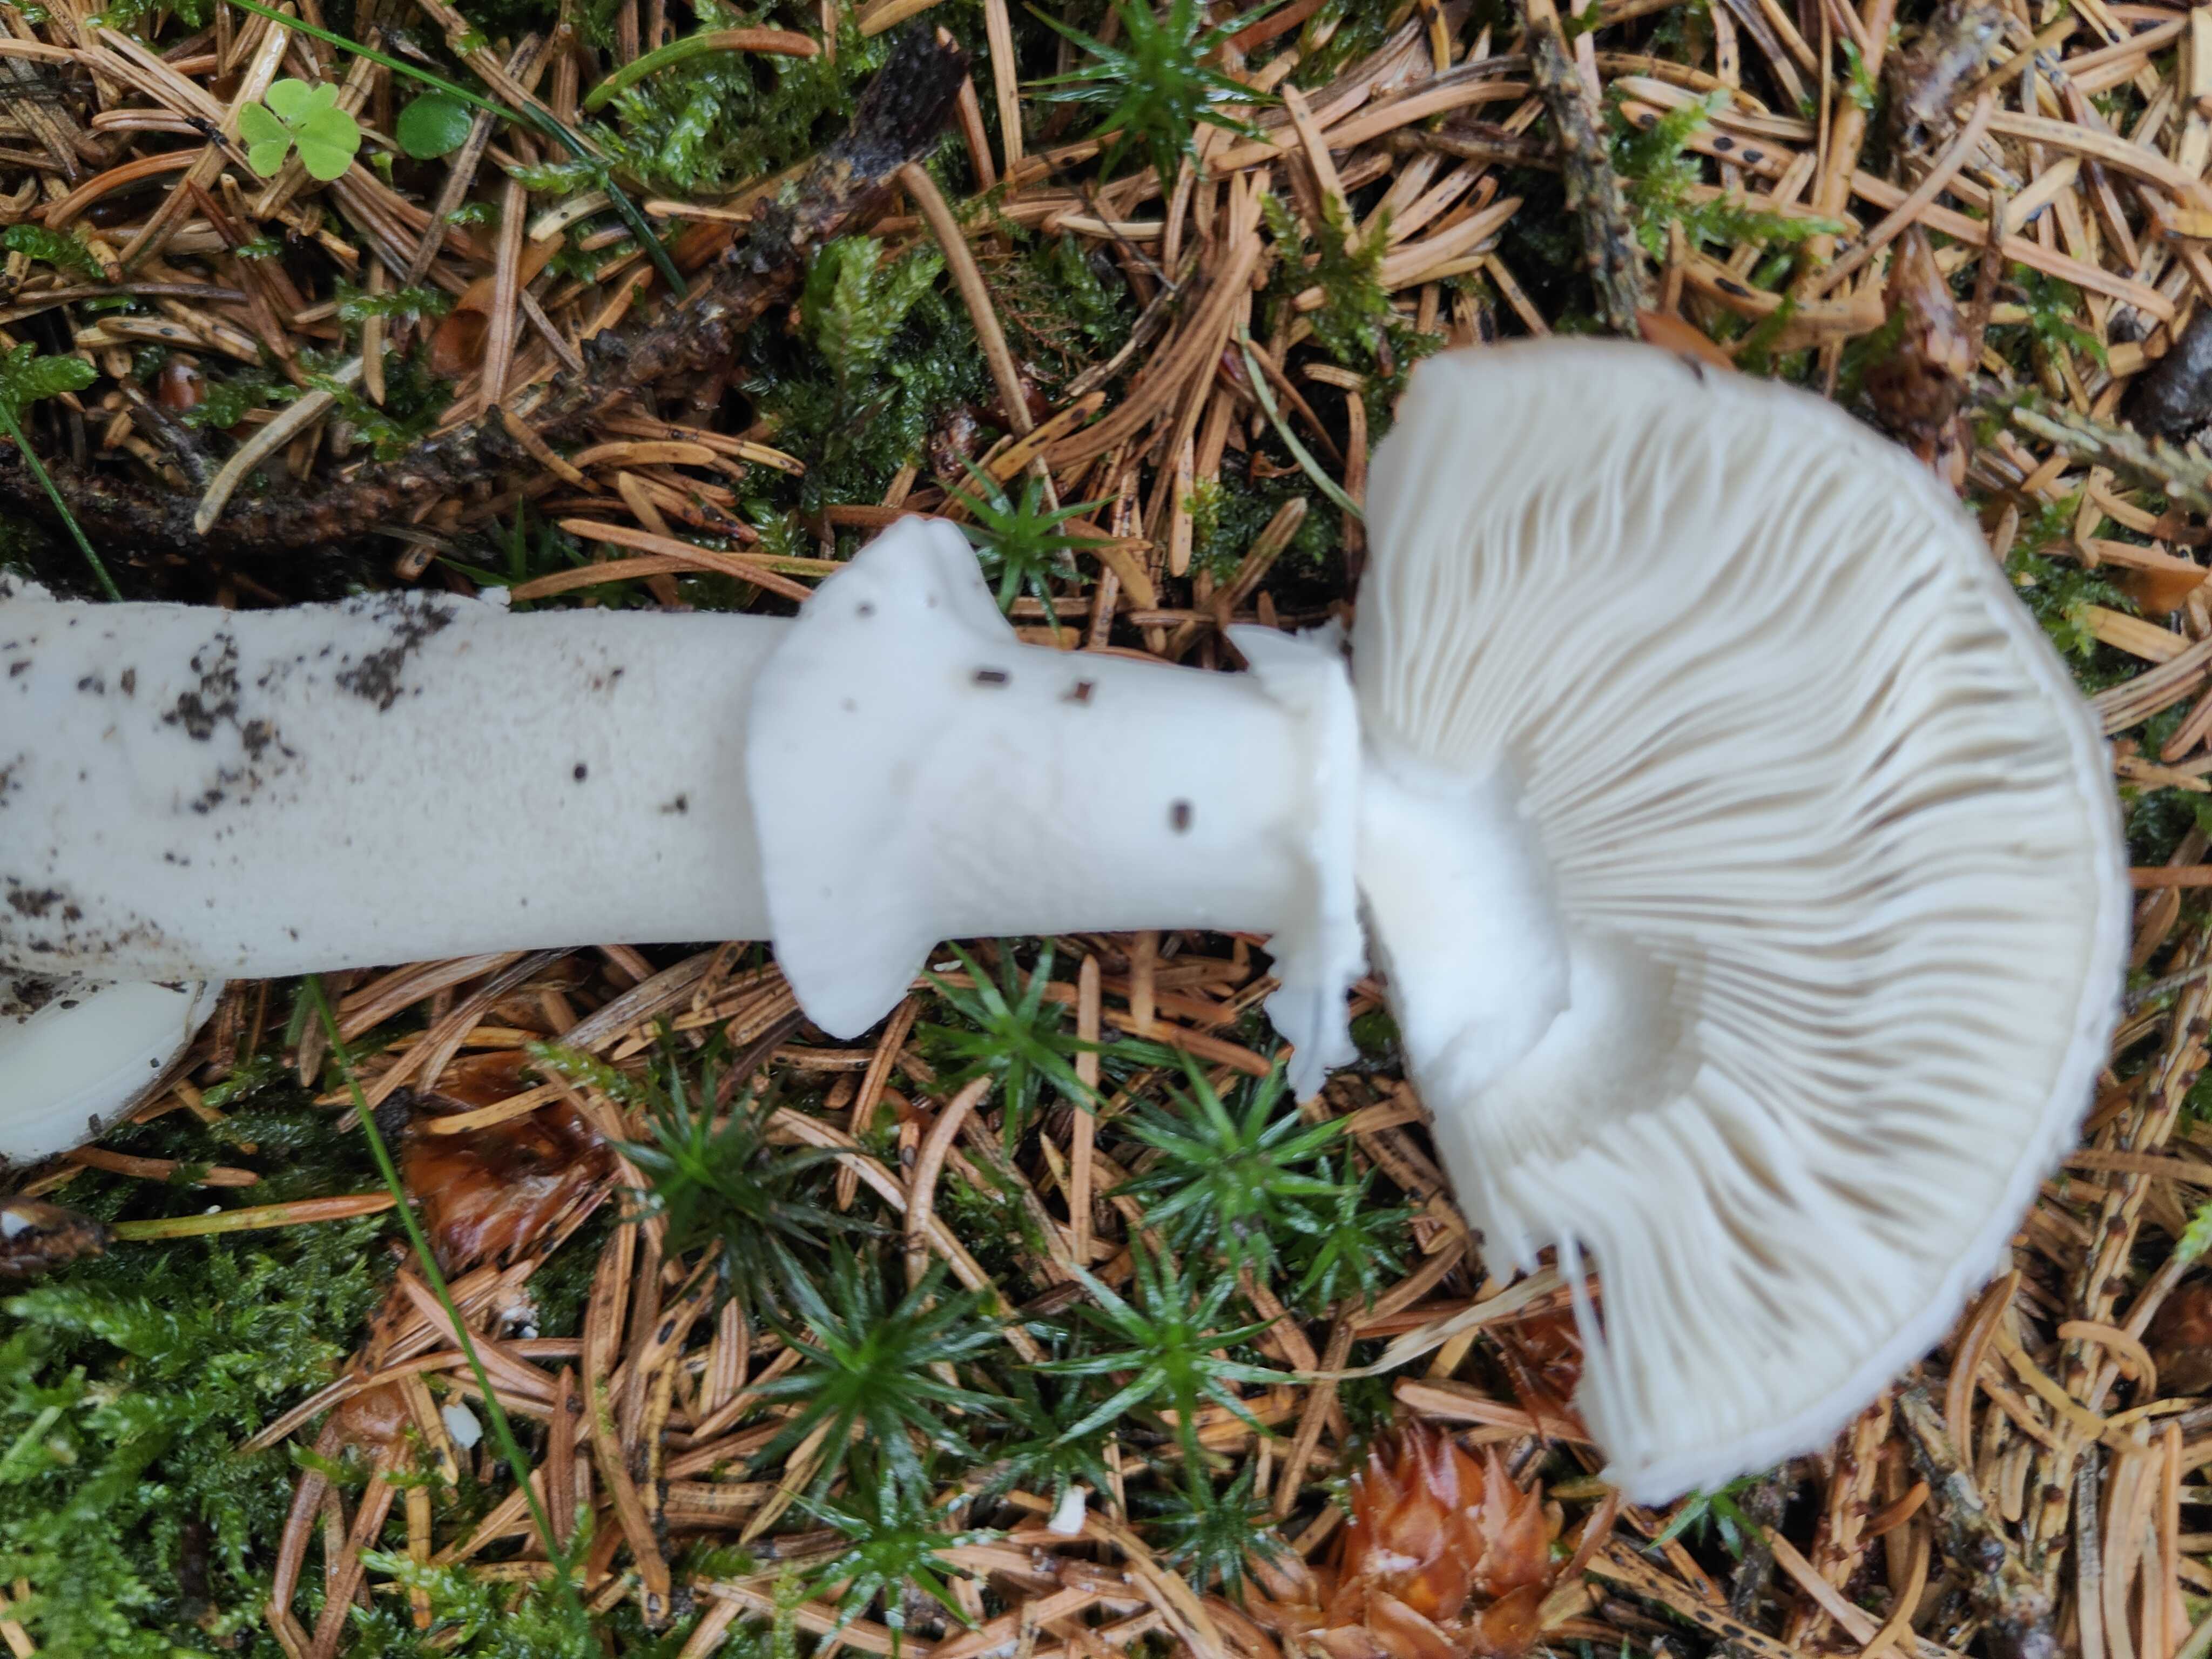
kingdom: Fungi
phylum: Basidiomycota
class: Agaricomycetes
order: Agaricales
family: Amanitaceae
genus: Amanita
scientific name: Amanita
